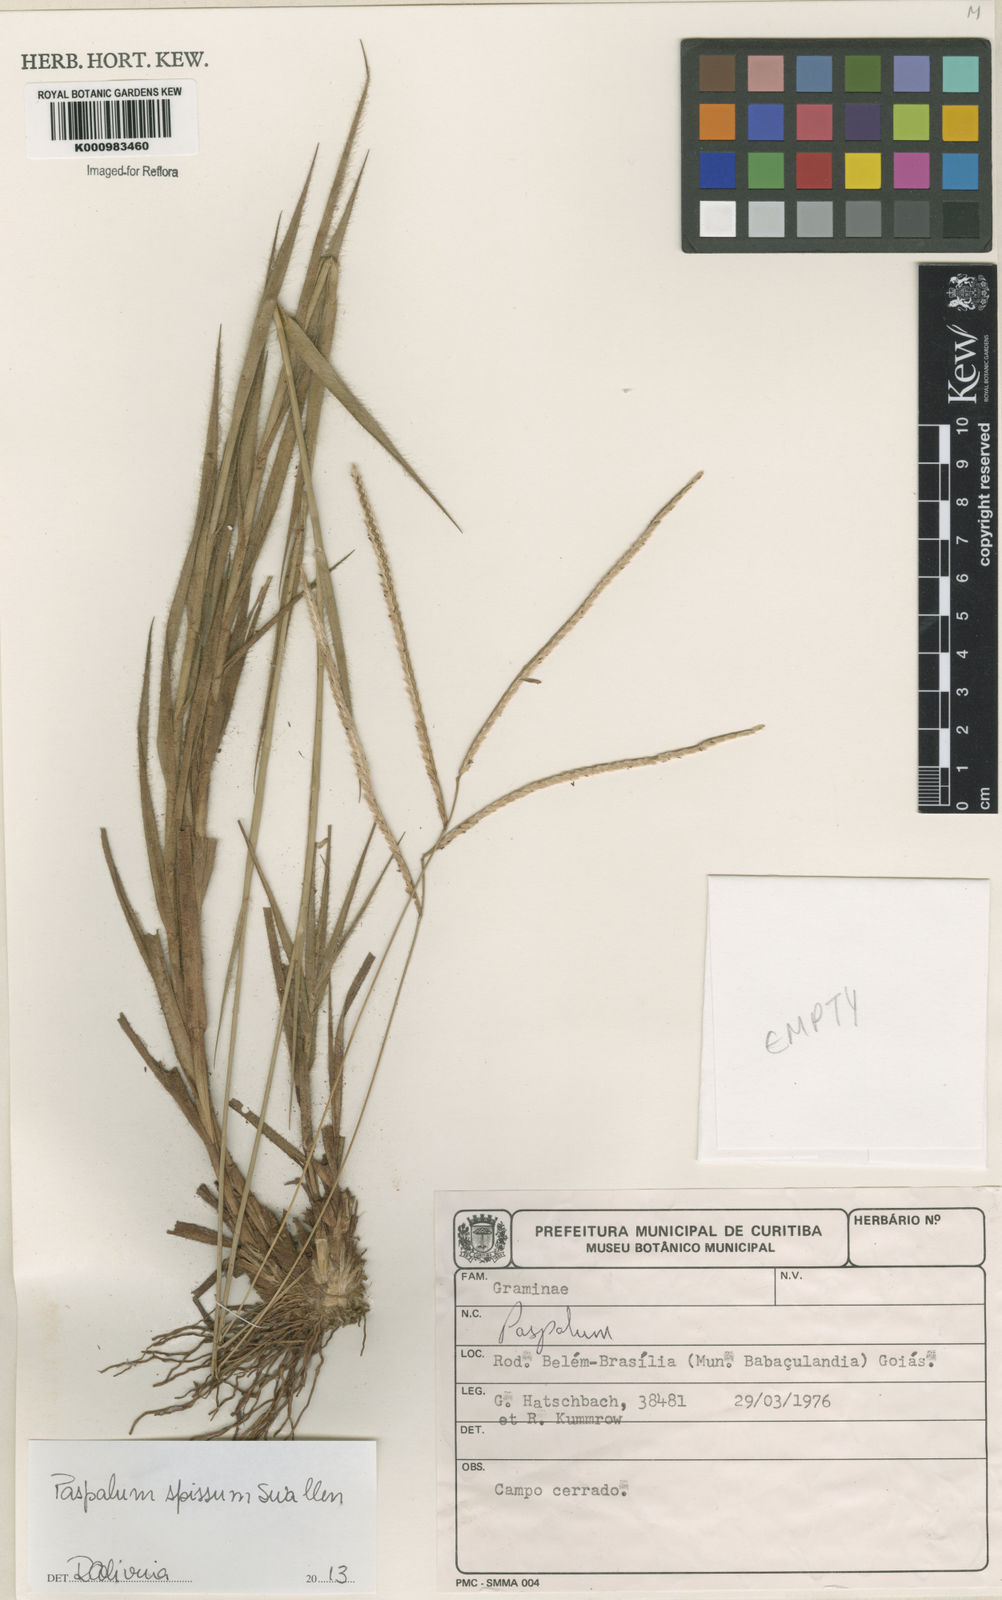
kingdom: Plantae
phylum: Tracheophyta
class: Liliopsida
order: Poales
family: Poaceae
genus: Paspalum
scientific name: Paspalum carinatum
